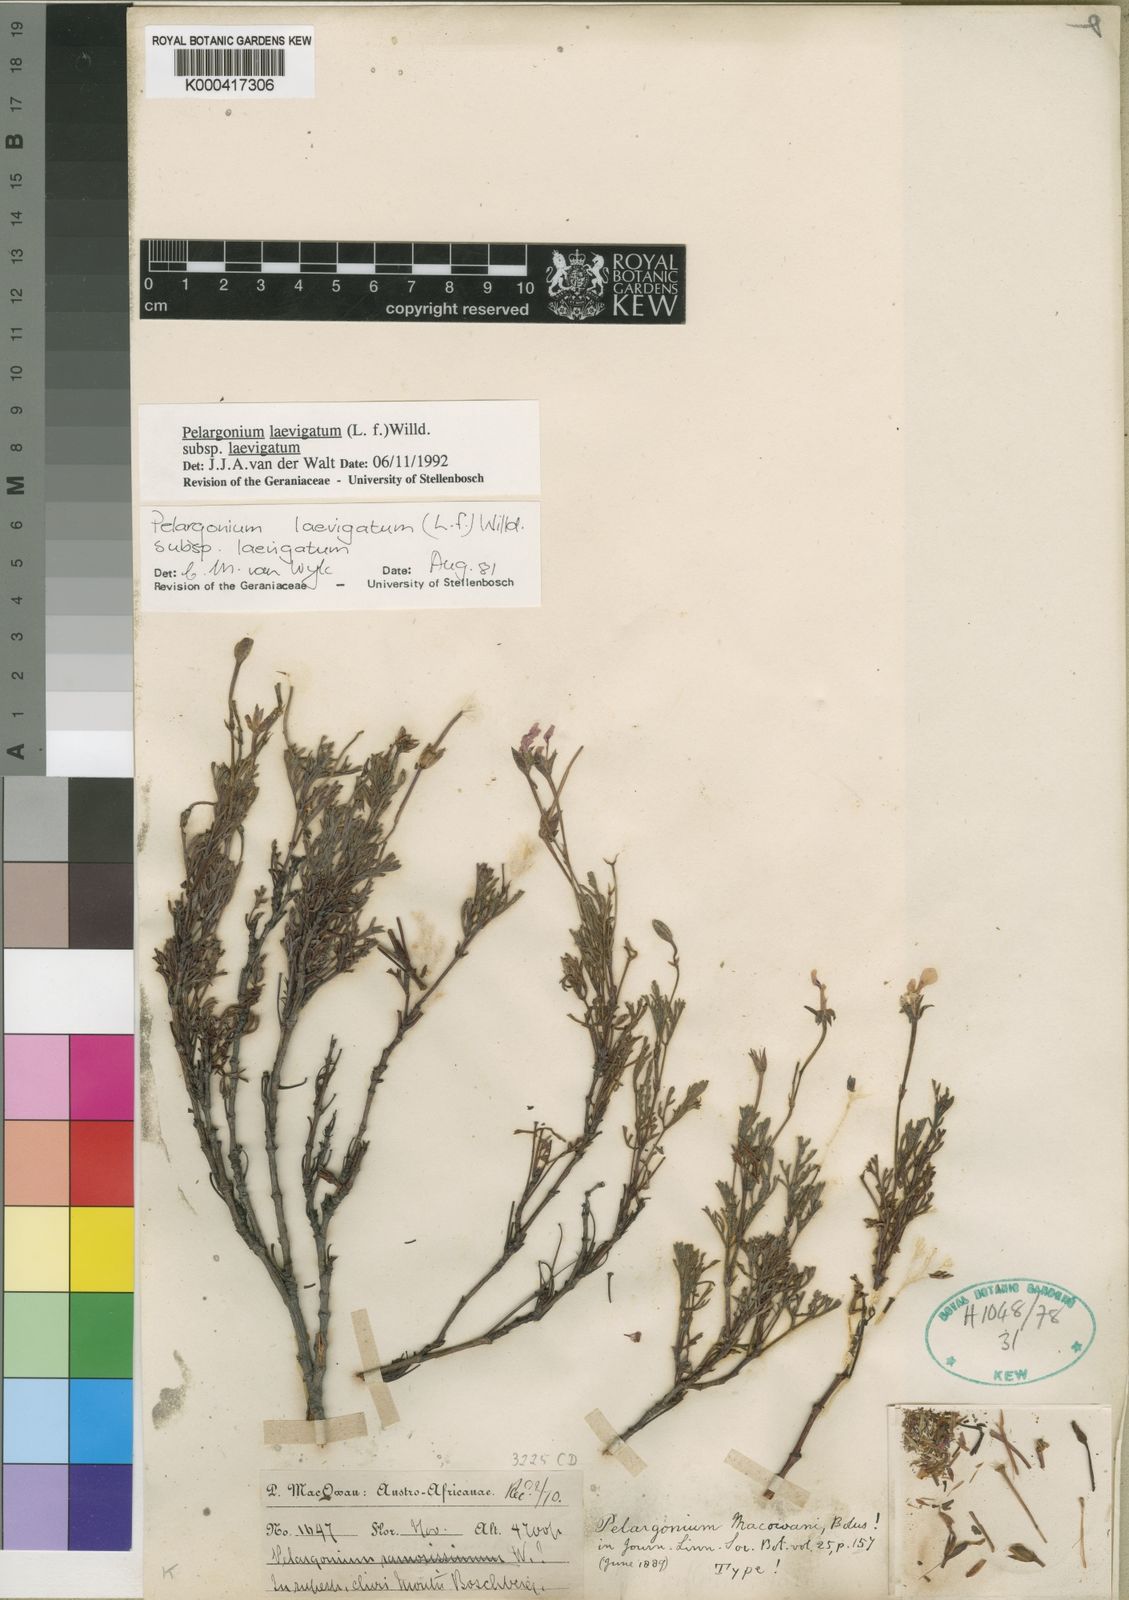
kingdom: Plantae
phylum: Tracheophyta
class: Magnoliopsida
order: Geraniales
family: Geraniaceae
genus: Pelargonium
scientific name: Pelargonium laevigatum
